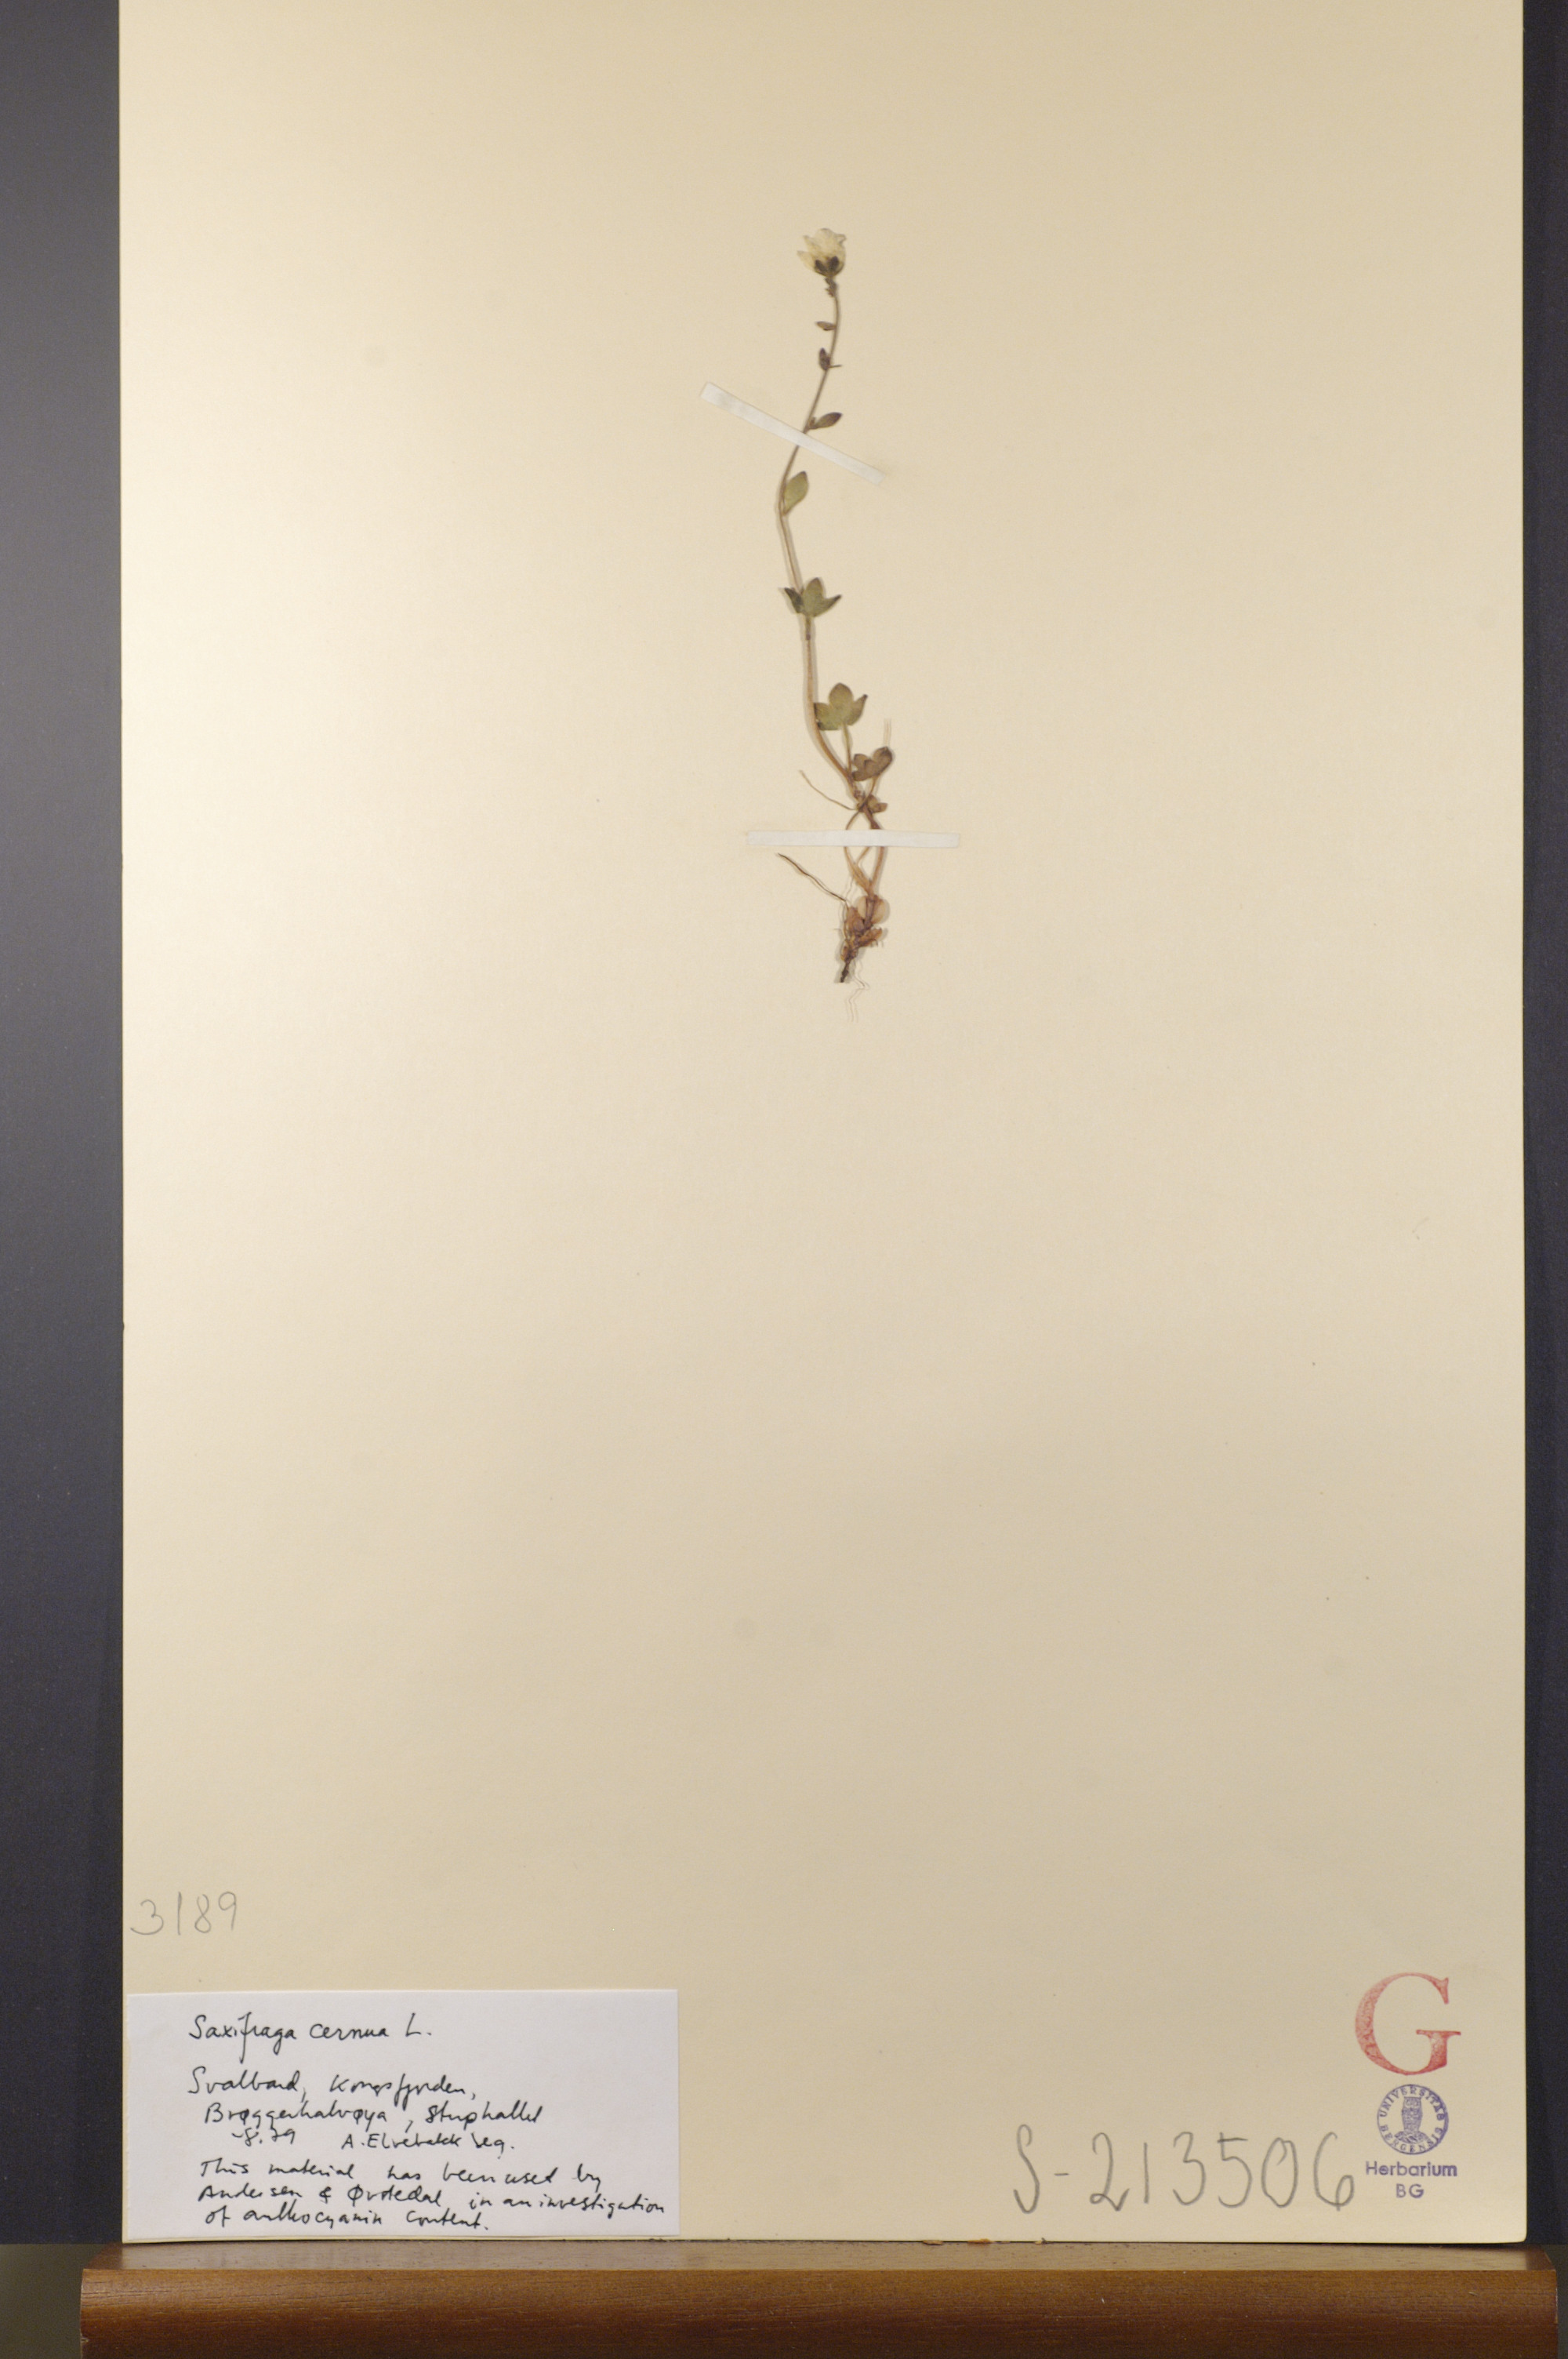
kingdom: Plantae
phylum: Tracheophyta
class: Magnoliopsida
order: Saxifragales
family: Saxifragaceae
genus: Saxifraga
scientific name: Saxifraga cernua
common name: Drooping saxifrage
